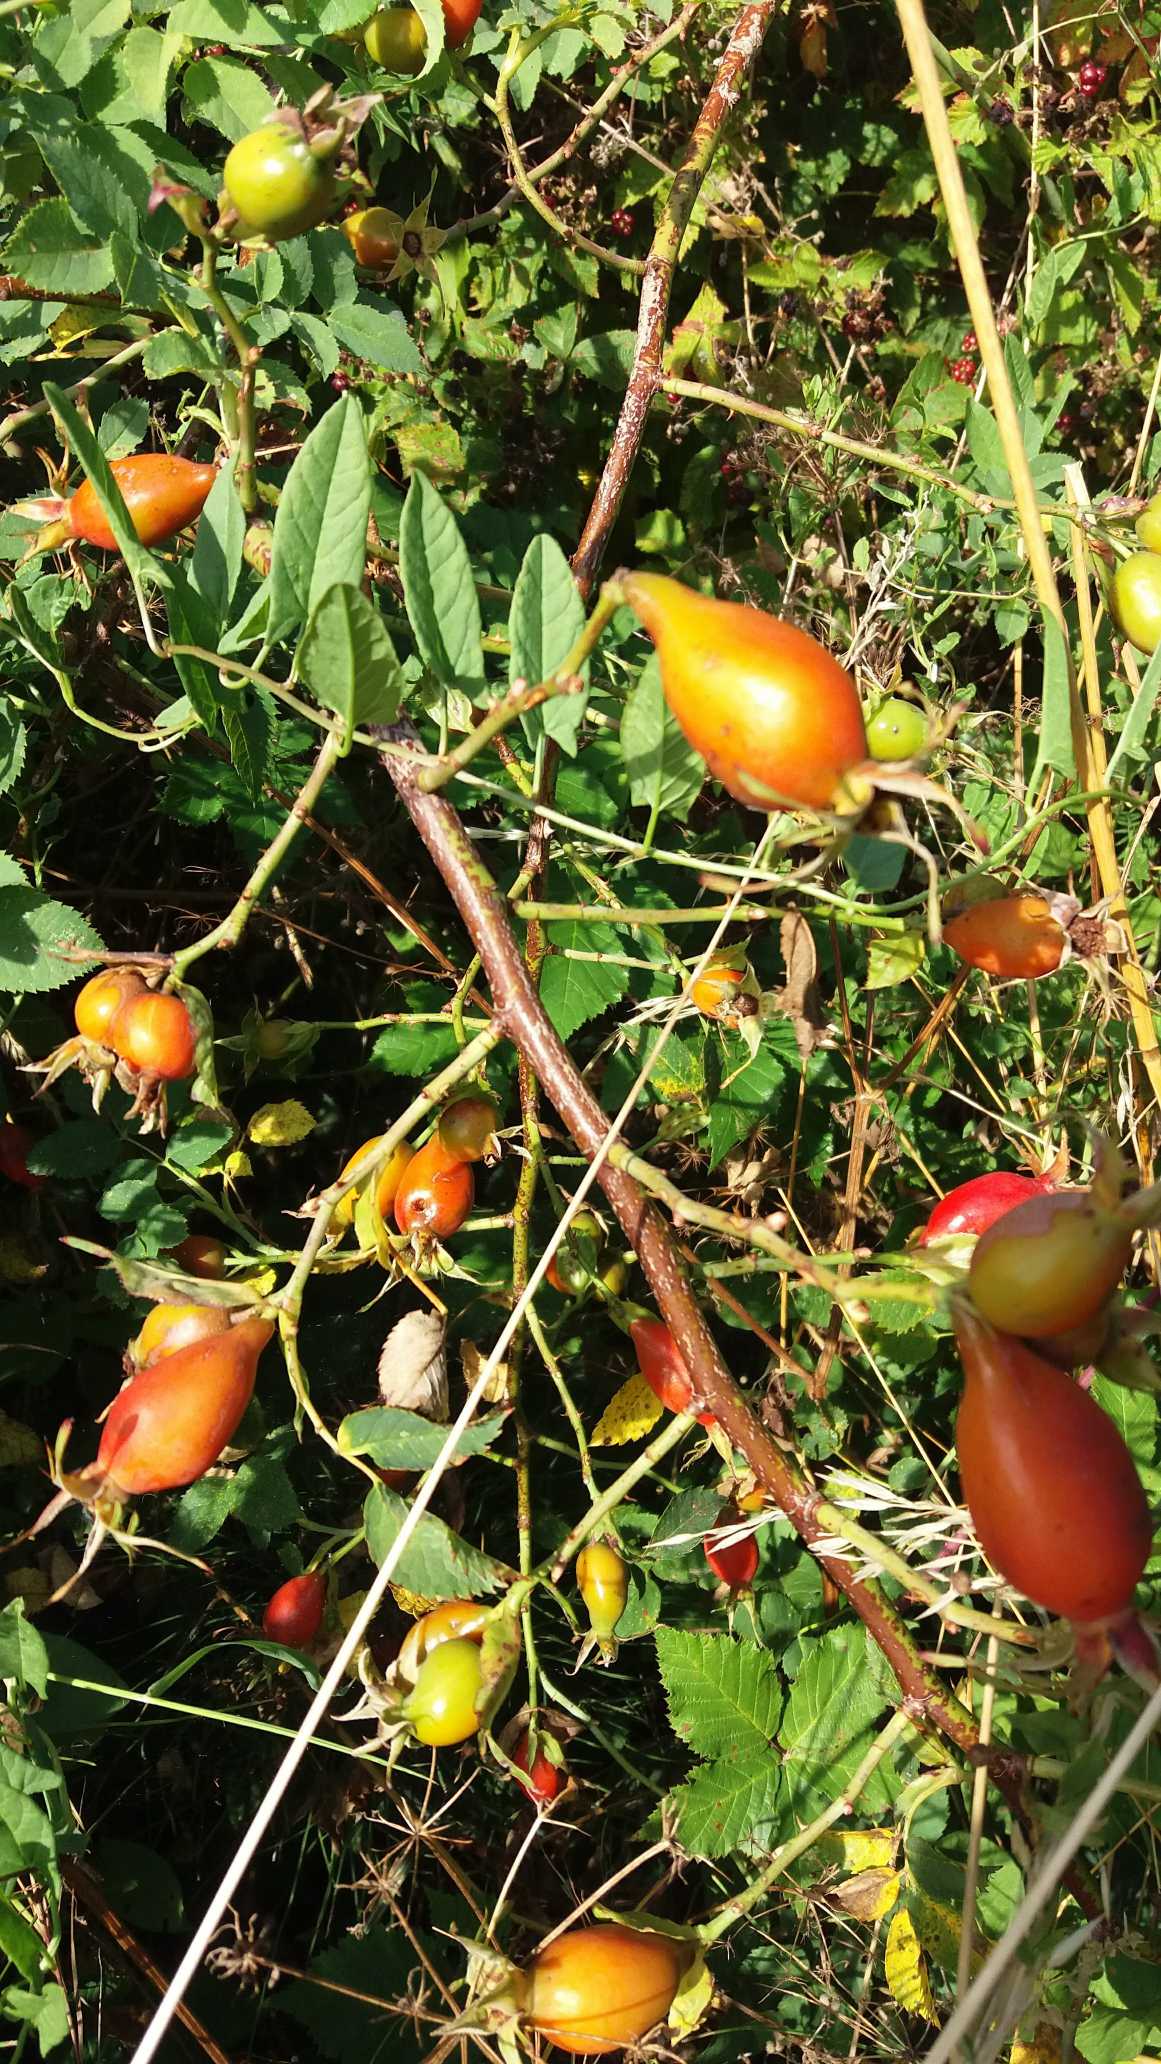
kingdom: Plantae
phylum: Tracheophyta
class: Magnoliopsida
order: Rosales
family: Rosaceae
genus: Rosa
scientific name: Rosa
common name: Roseslægten
